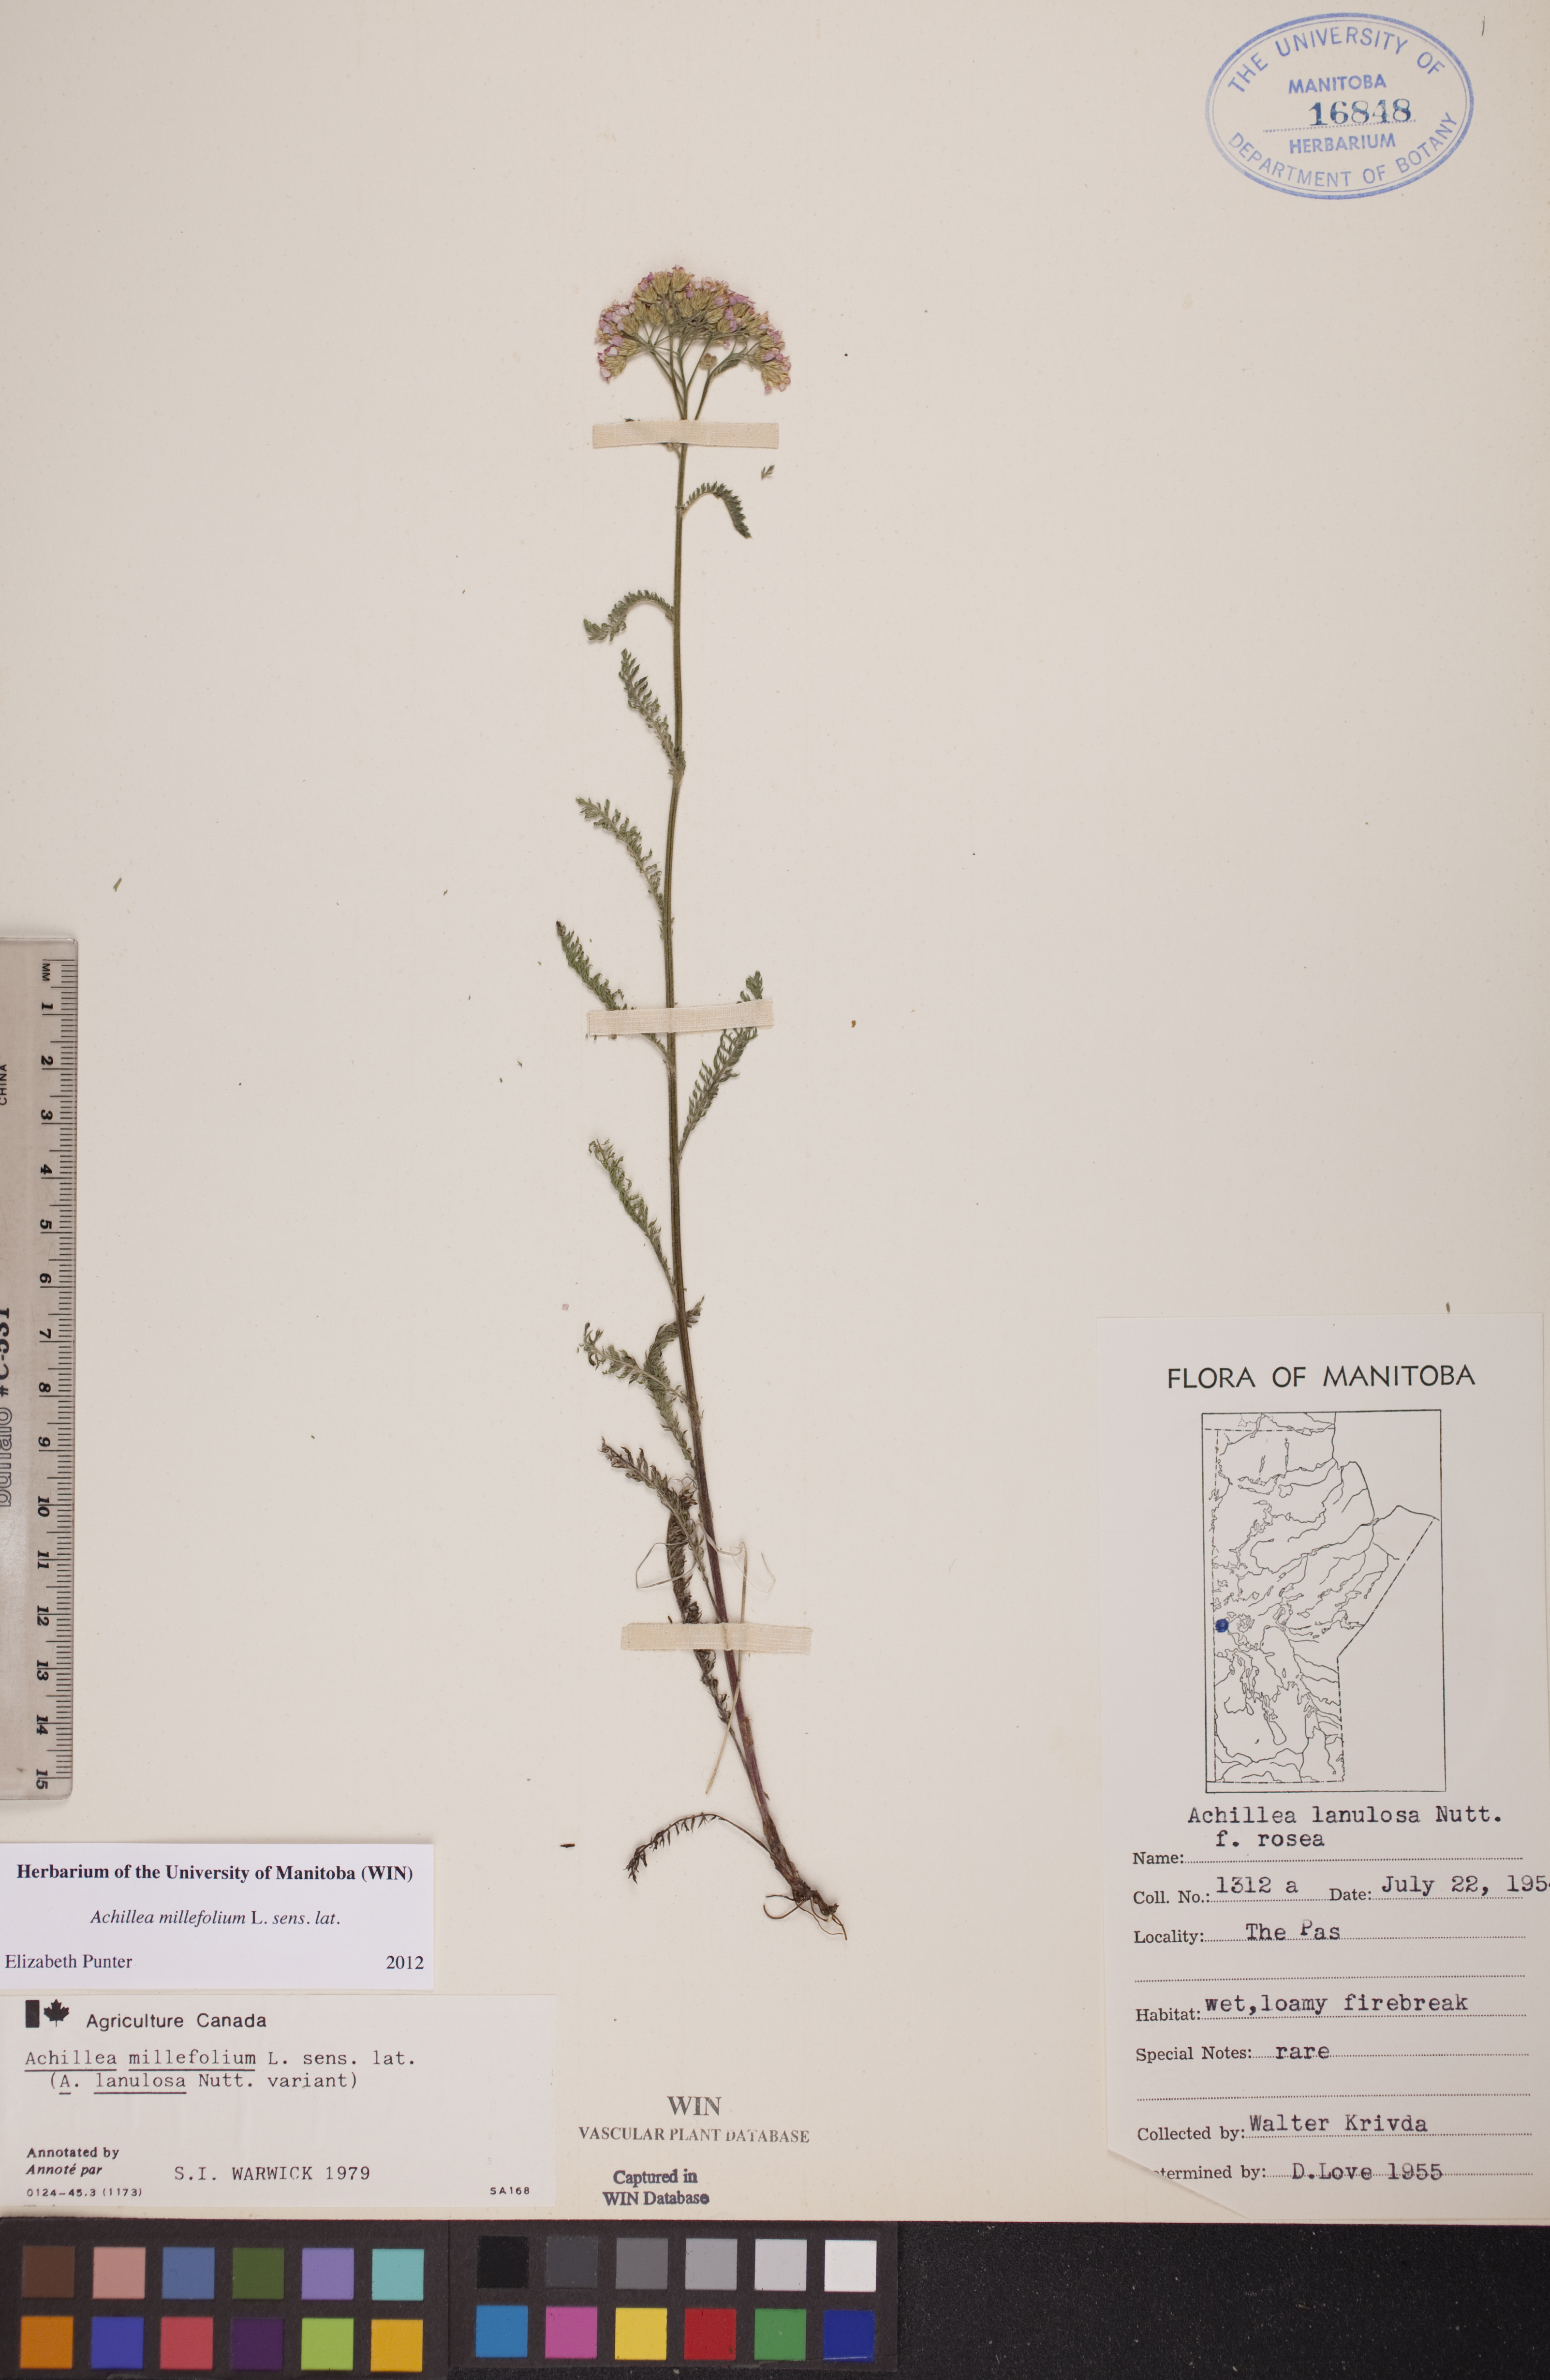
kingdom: Plantae
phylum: Tracheophyta
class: Magnoliopsida
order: Asterales
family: Asteraceae
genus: Achillea
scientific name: Achillea millefolium
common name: Yarrow
